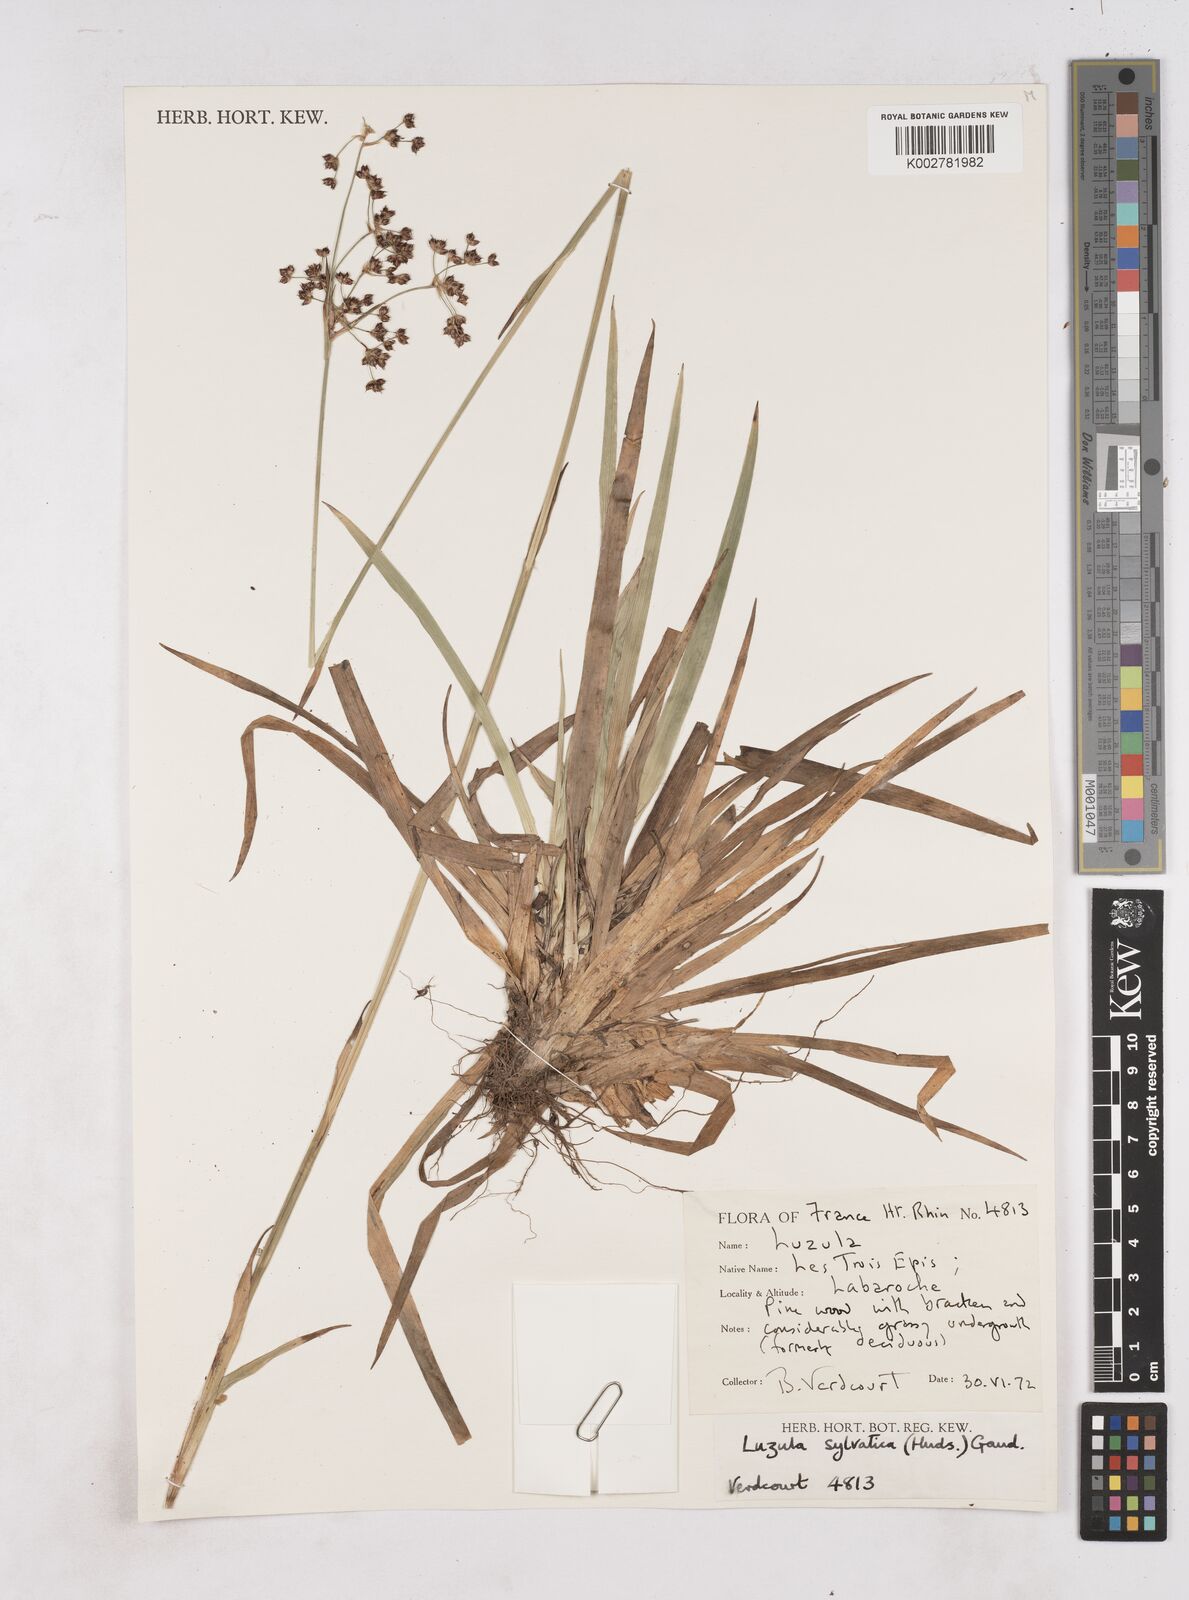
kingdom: Plantae
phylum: Tracheophyta
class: Liliopsida
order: Poales
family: Juncaceae
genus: Luzula
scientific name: Luzula sylvatica
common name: Great wood-rush
